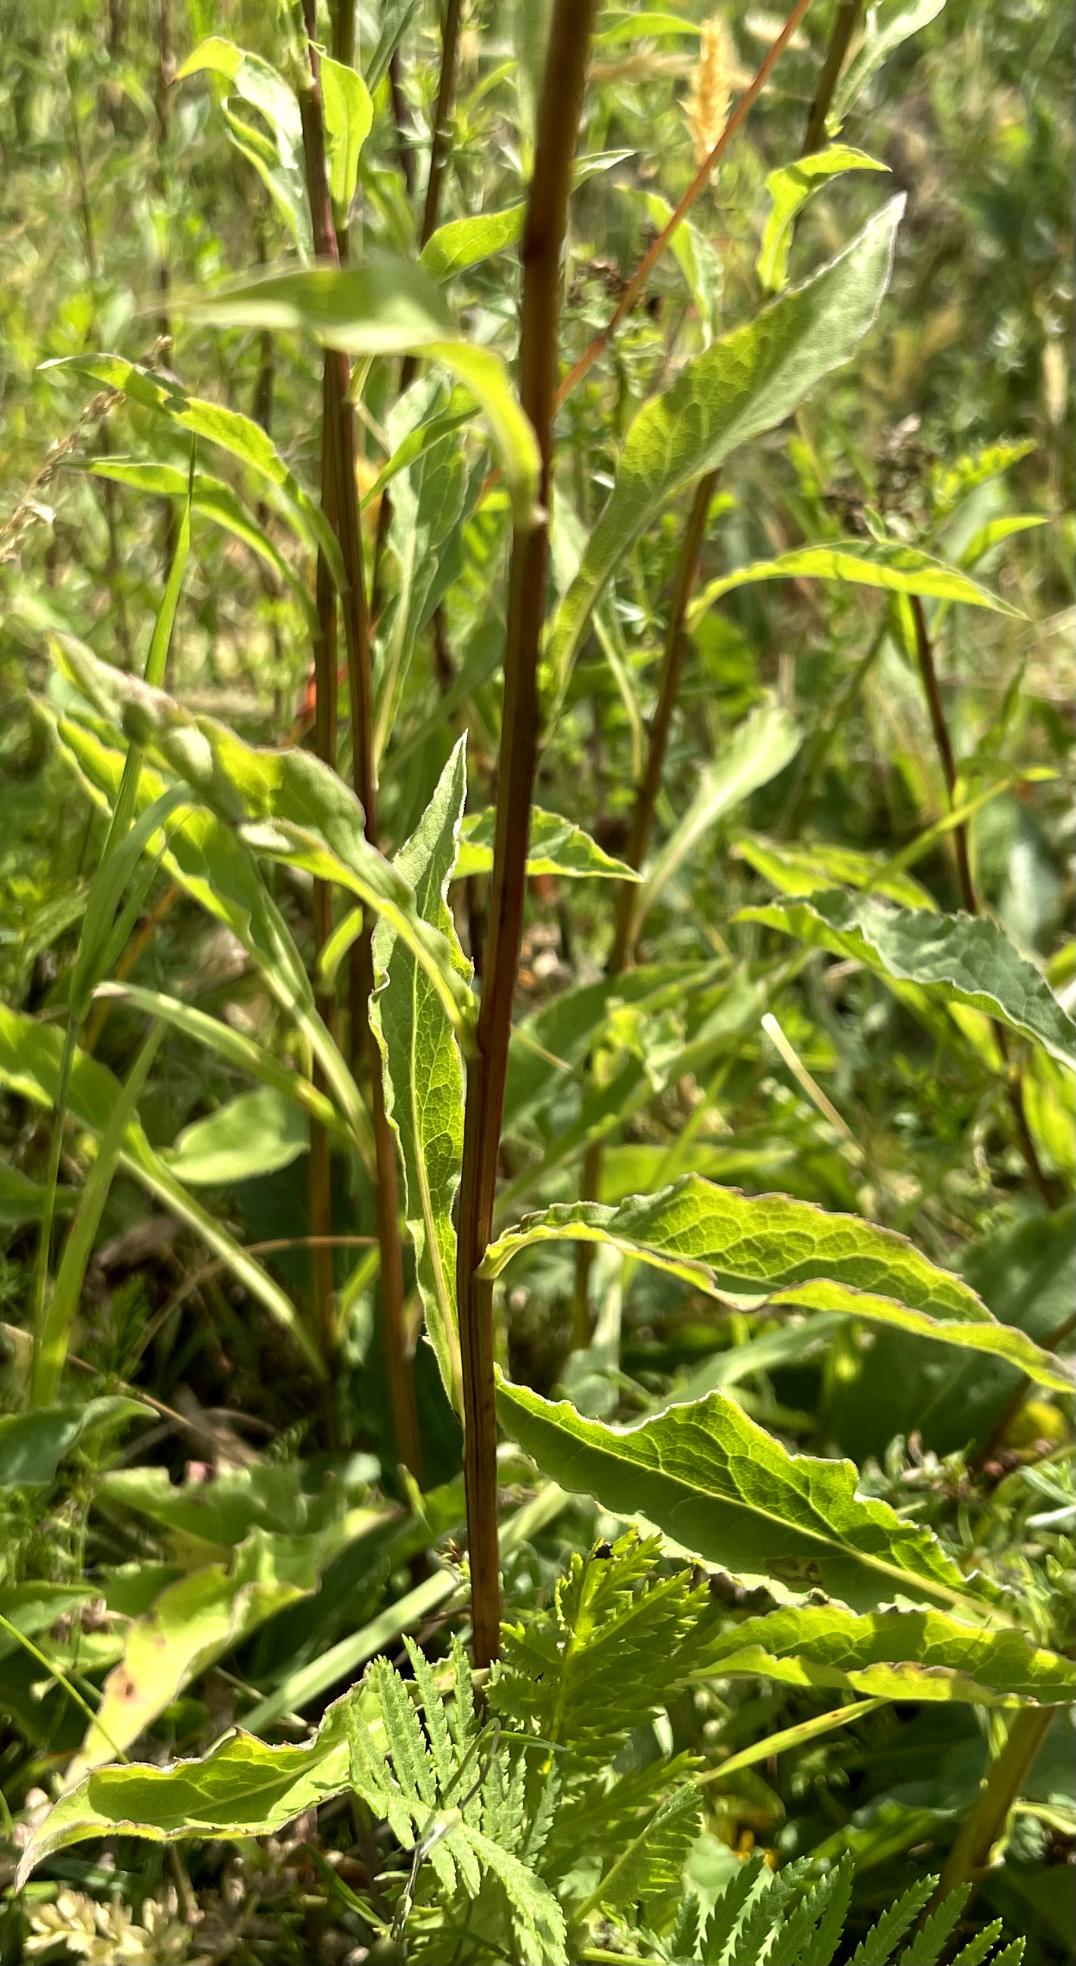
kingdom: Plantae
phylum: Tracheophyta
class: Magnoliopsida
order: Asterales
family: Asteraceae
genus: Solidago
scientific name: Solidago virgaurea
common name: Almindelig gyldenris
